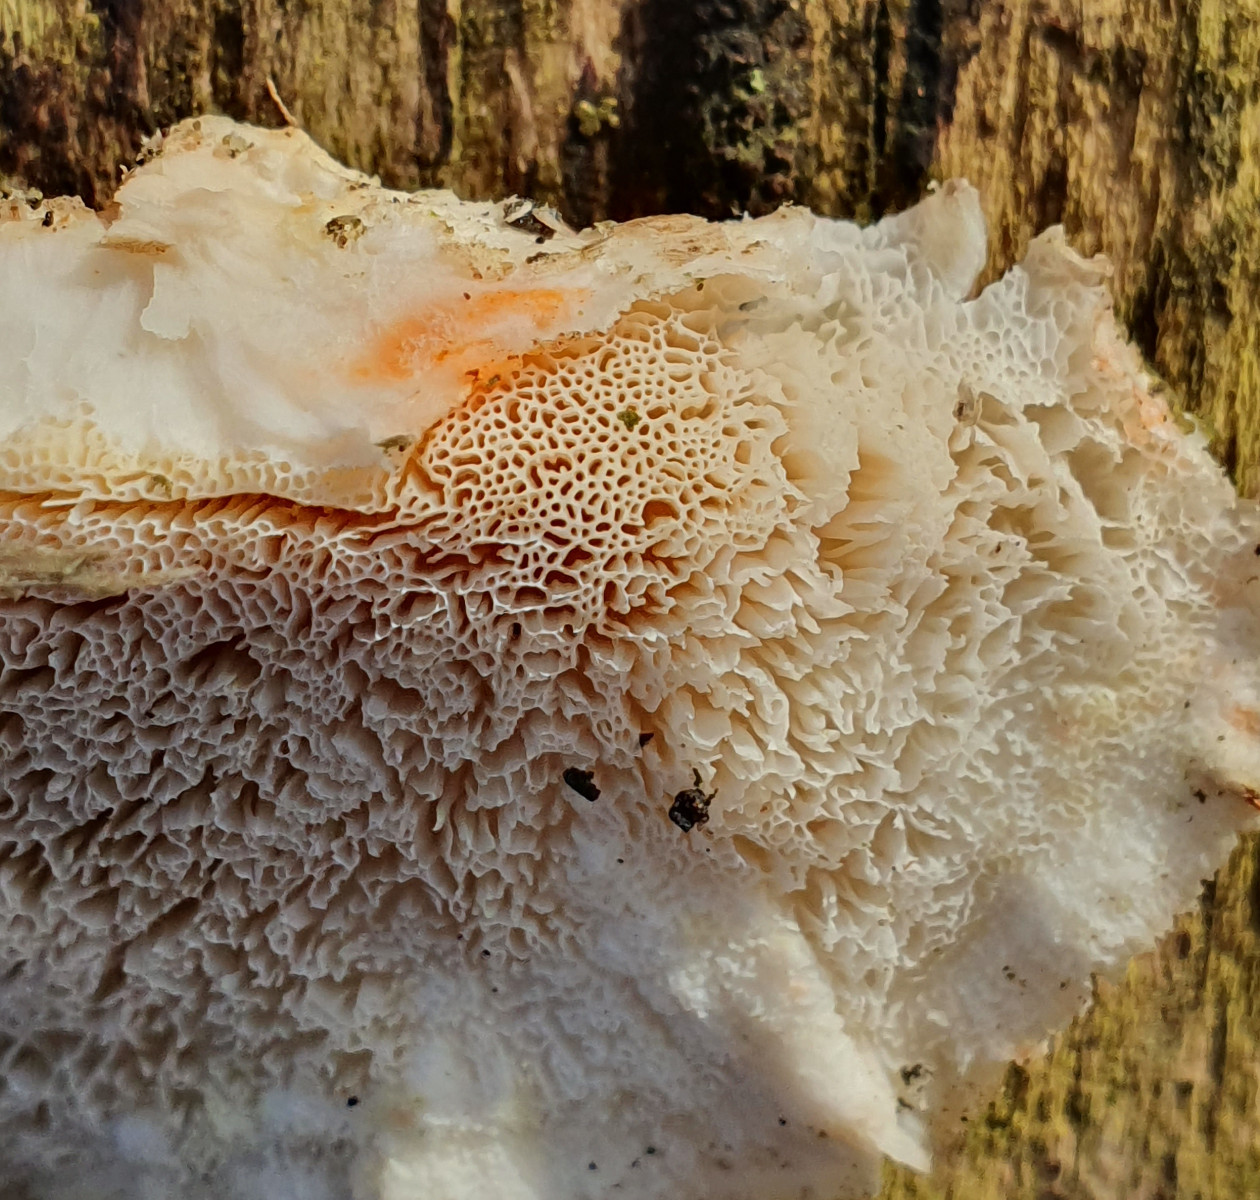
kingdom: Fungi
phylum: Basidiomycota
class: Agaricomycetes
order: Polyporales
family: Incrustoporiaceae
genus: Tyromyces
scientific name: Tyromyces lacteus
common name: mælkehvid kødporesvamp
